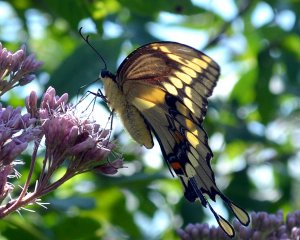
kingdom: Animalia
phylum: Arthropoda
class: Insecta
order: Lepidoptera
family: Papilionidae
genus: Papilio
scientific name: Papilio cresphontes
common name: Eastern Giant Swallowtail
